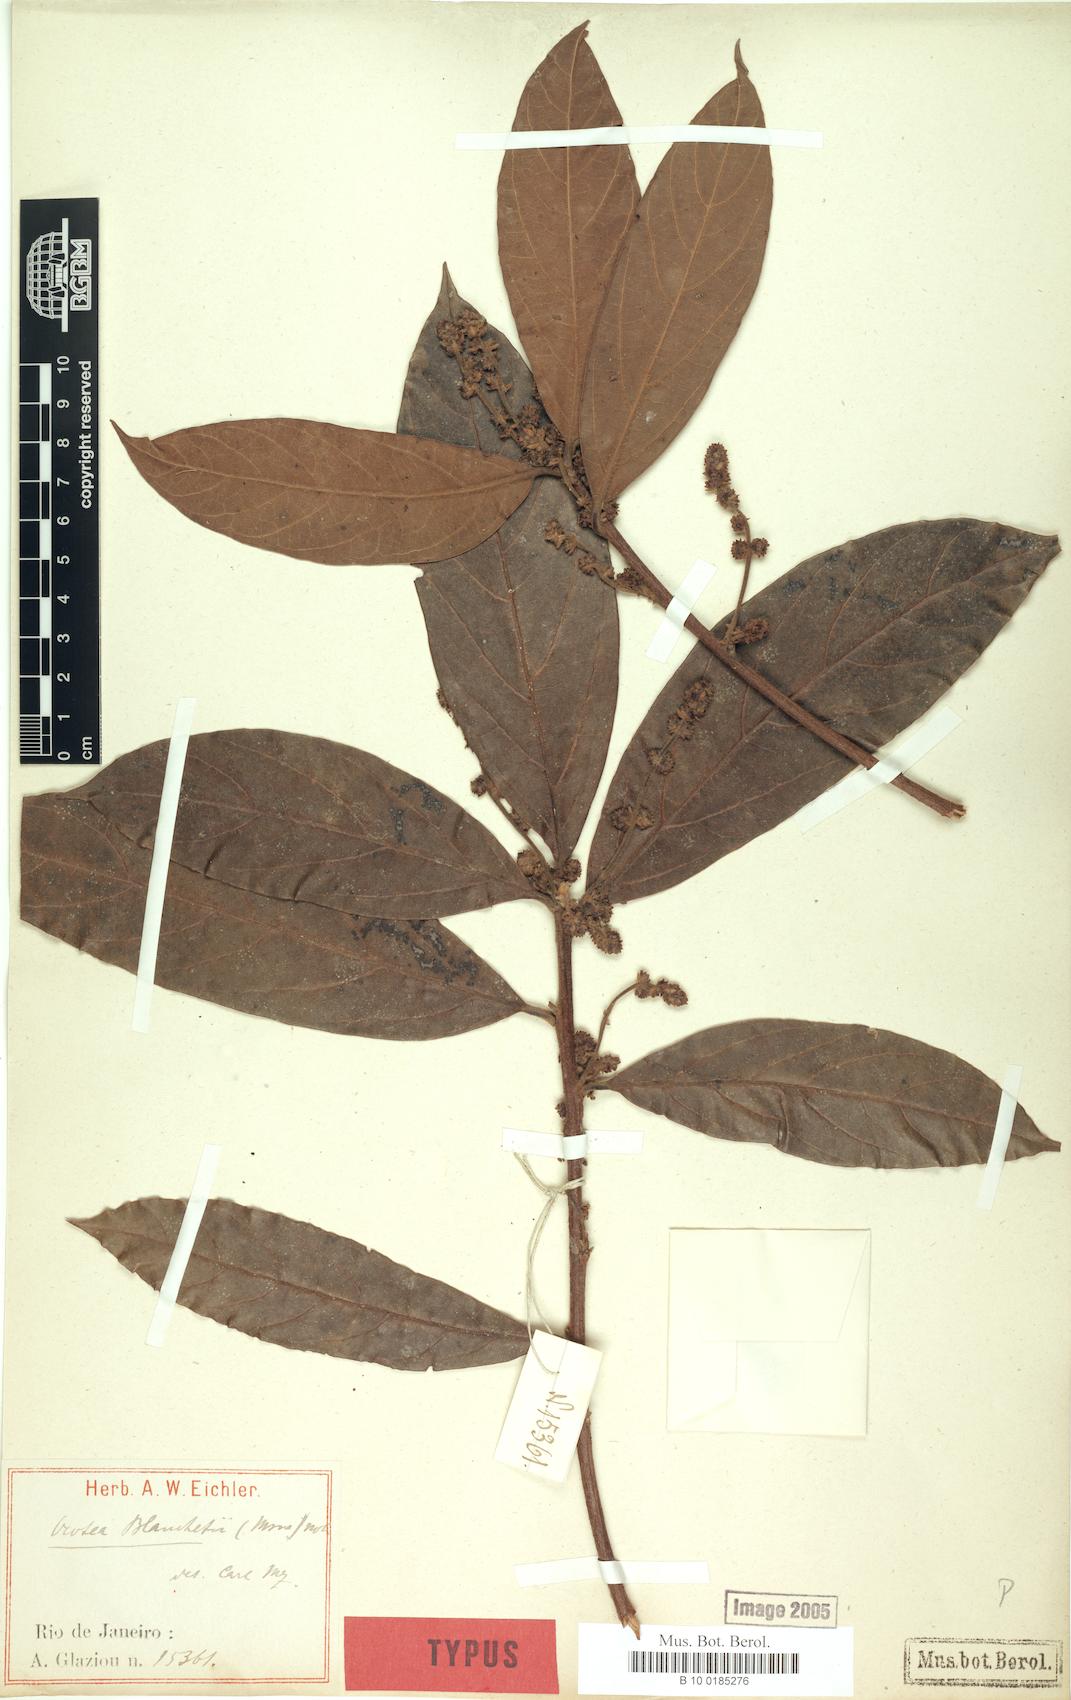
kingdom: Plantae
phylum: Tracheophyta
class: Magnoliopsida
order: Laurales
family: Lauraceae
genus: Andea
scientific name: Andea velutina
